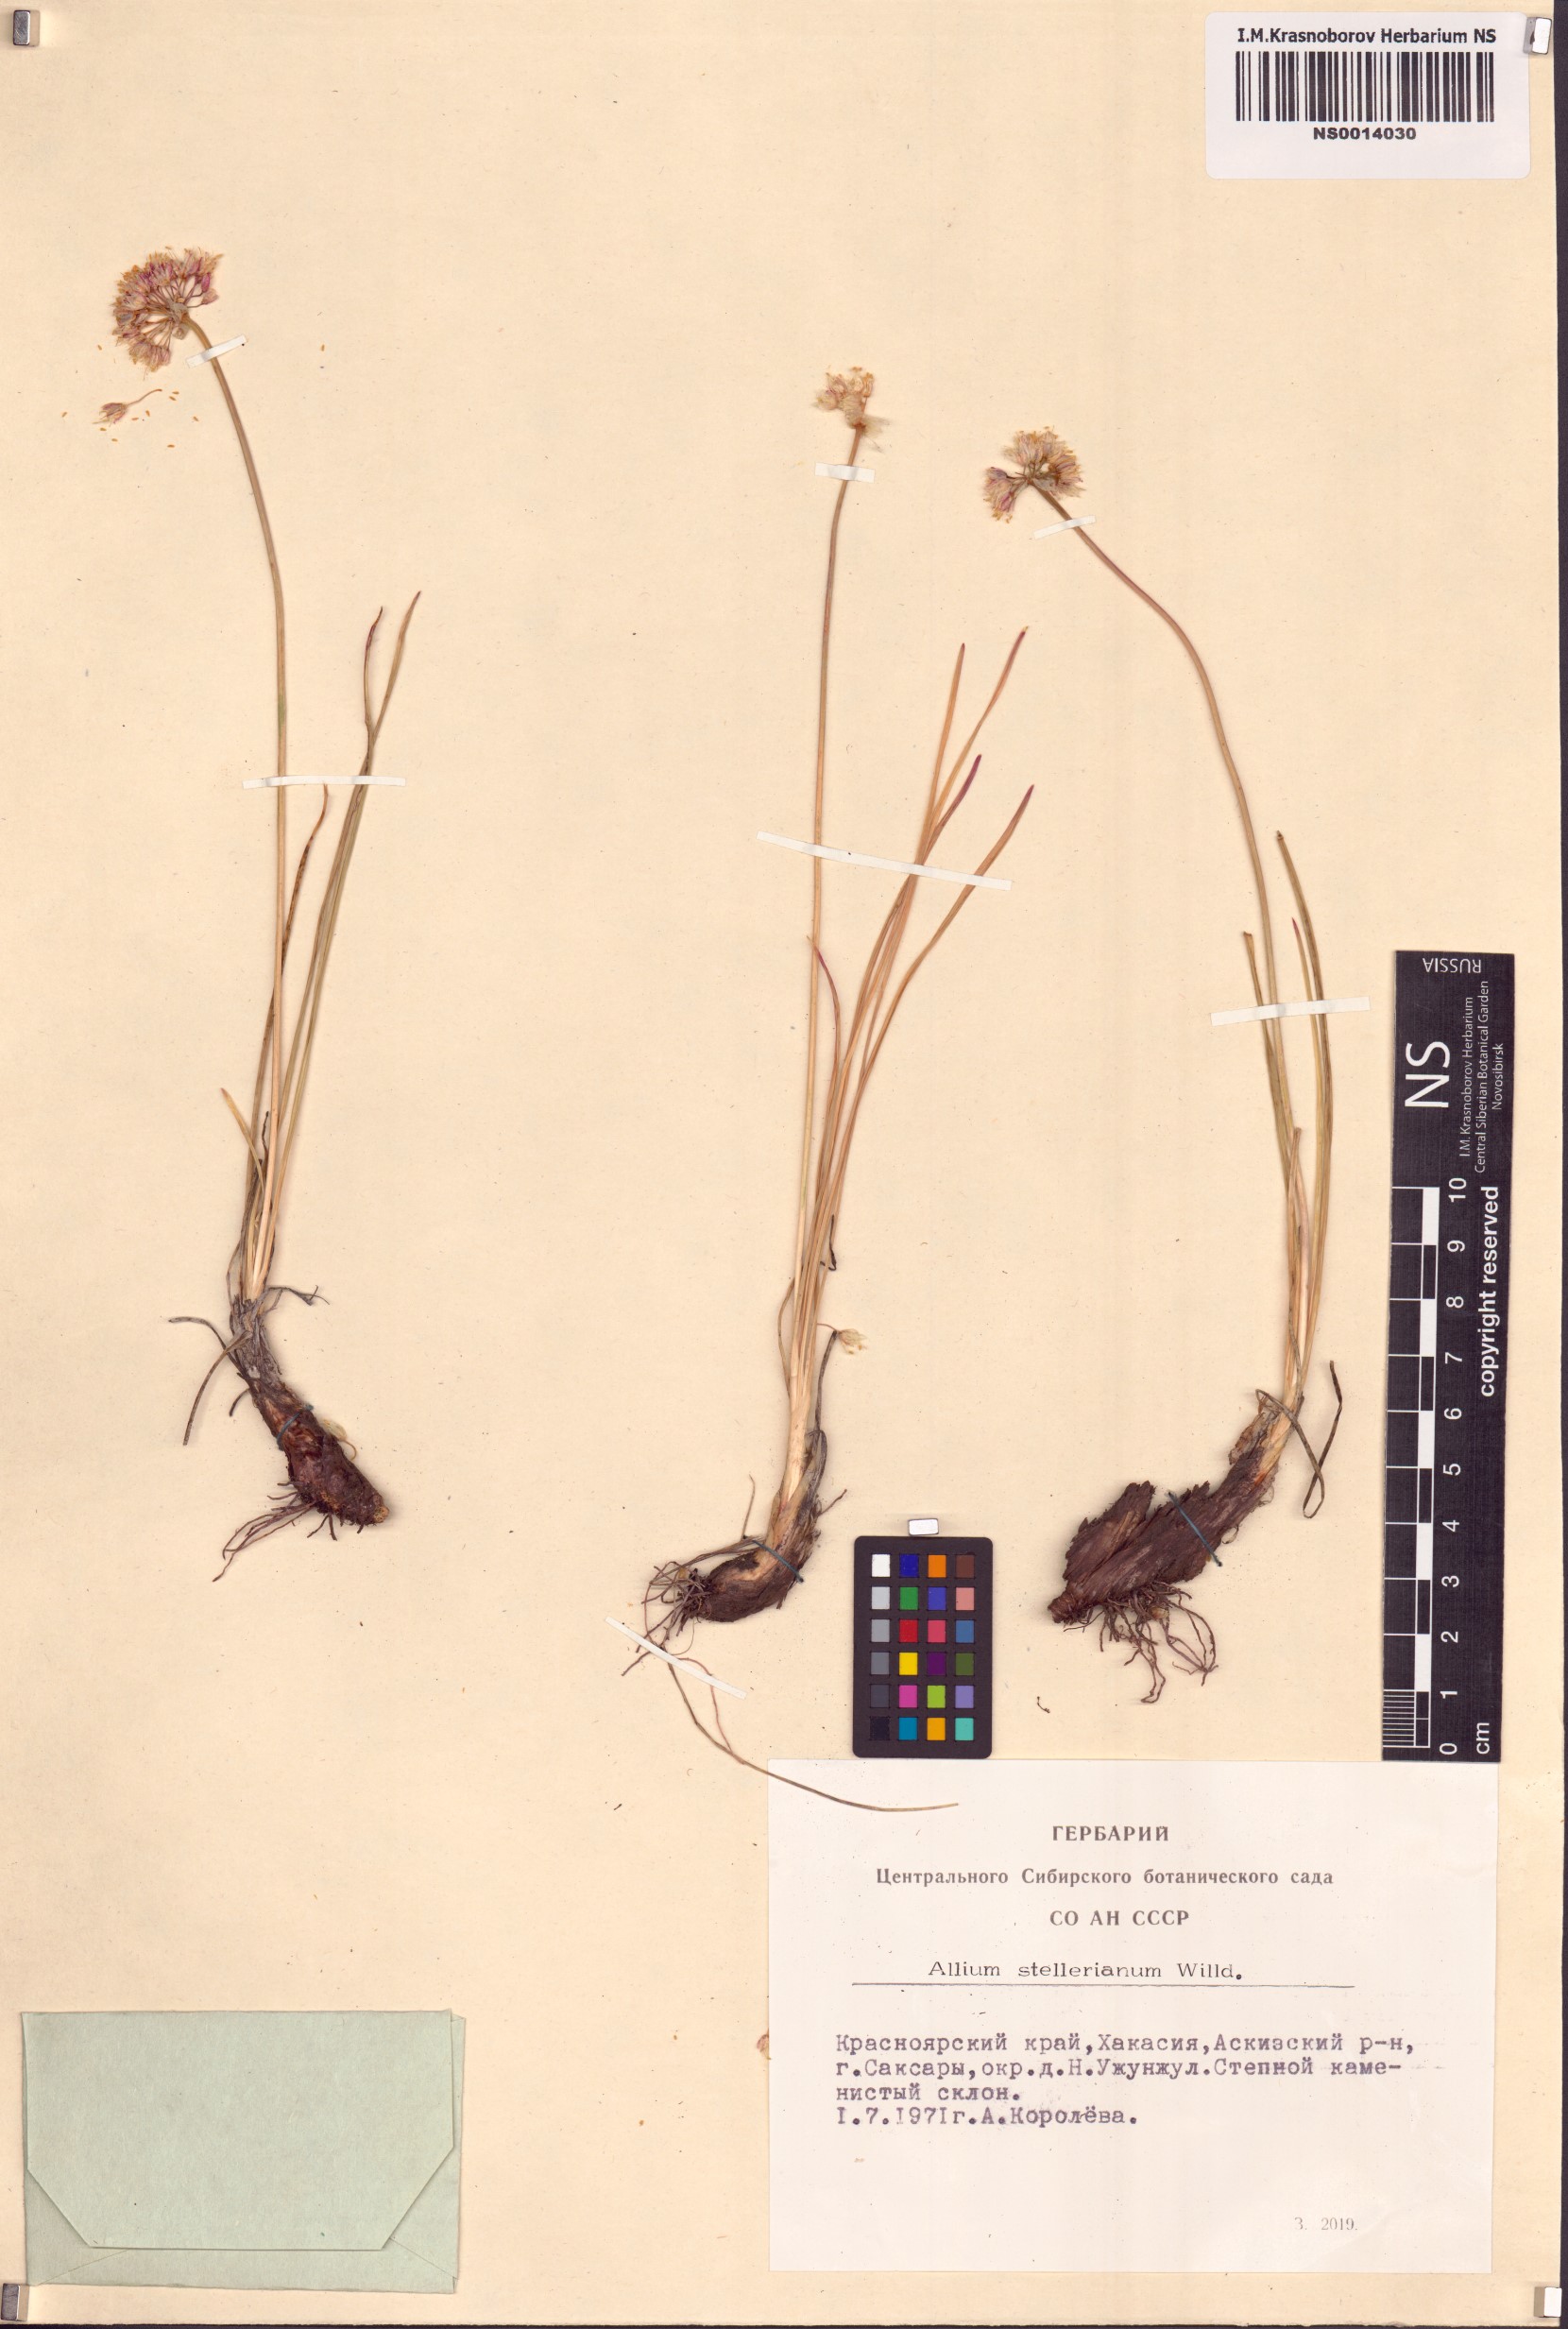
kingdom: Plantae
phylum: Tracheophyta
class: Liliopsida
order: Asparagales
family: Amaryllidaceae
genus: Allium
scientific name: Allium stellerianum
